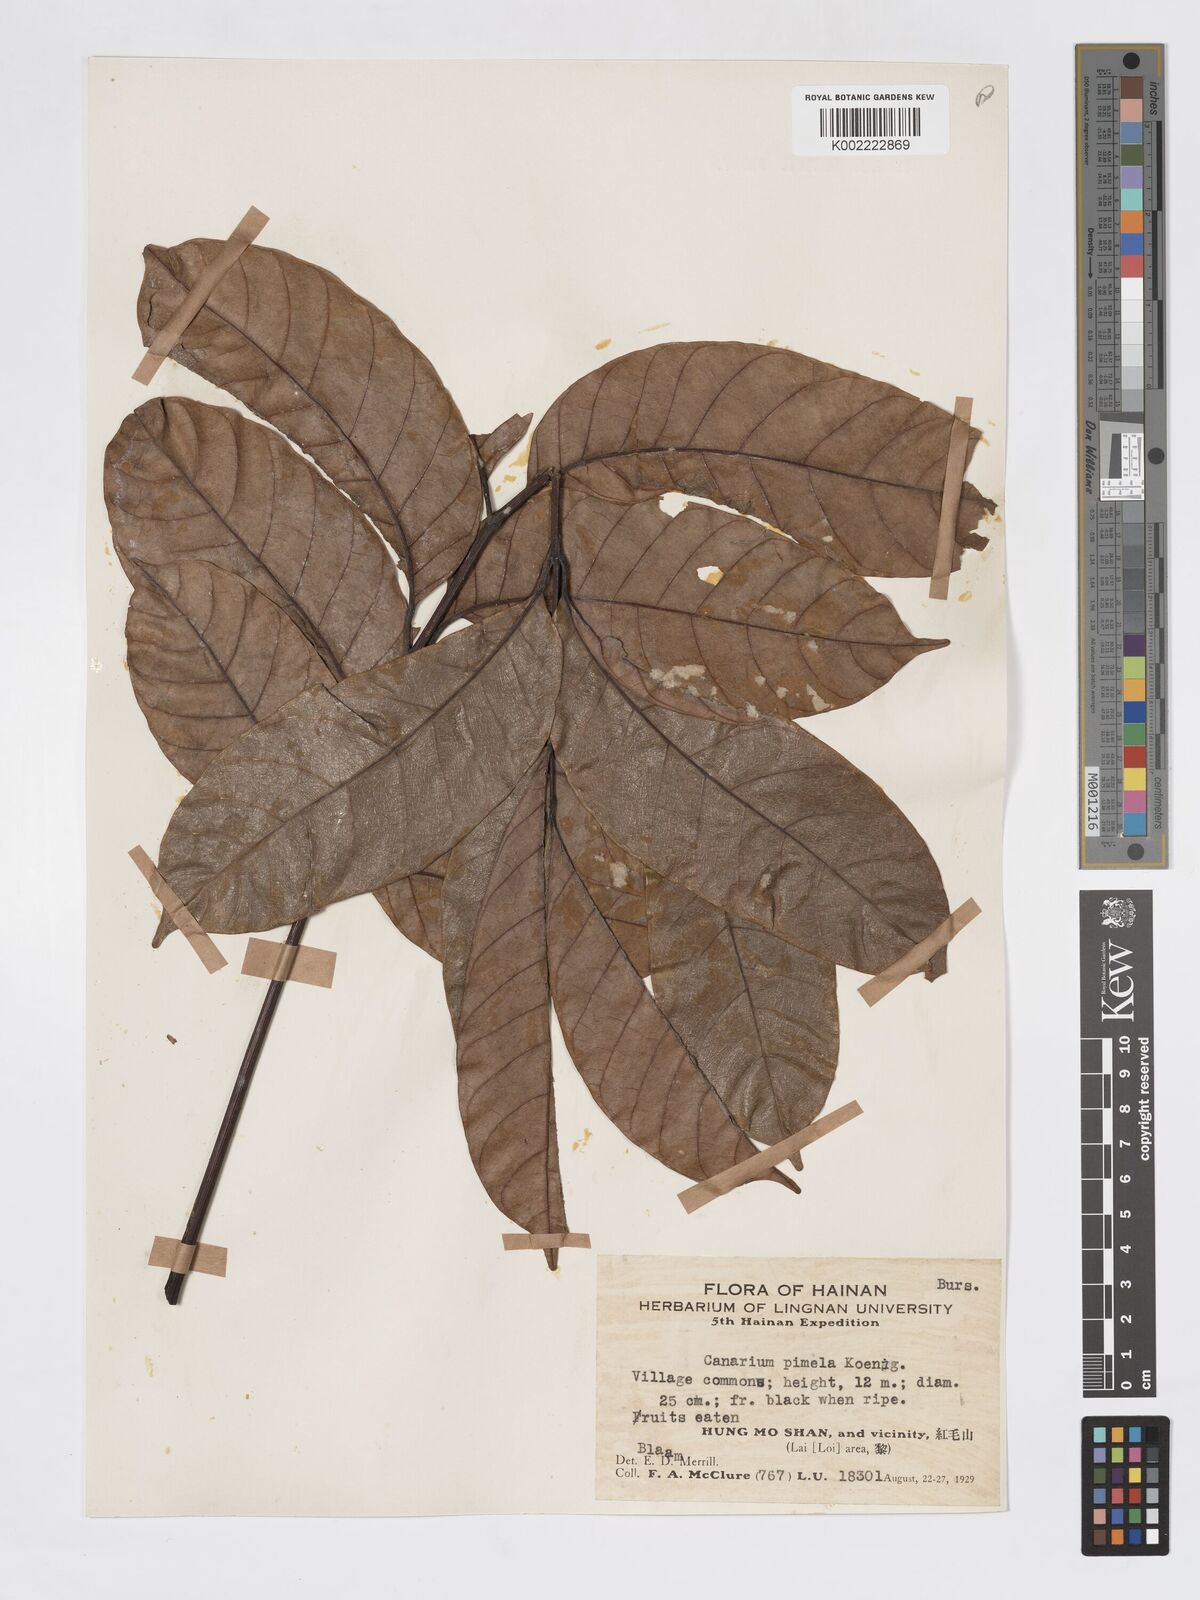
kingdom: Plantae
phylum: Tracheophyta
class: Magnoliopsida
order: Sapindales
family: Burseraceae
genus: Canarium
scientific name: Canarium
